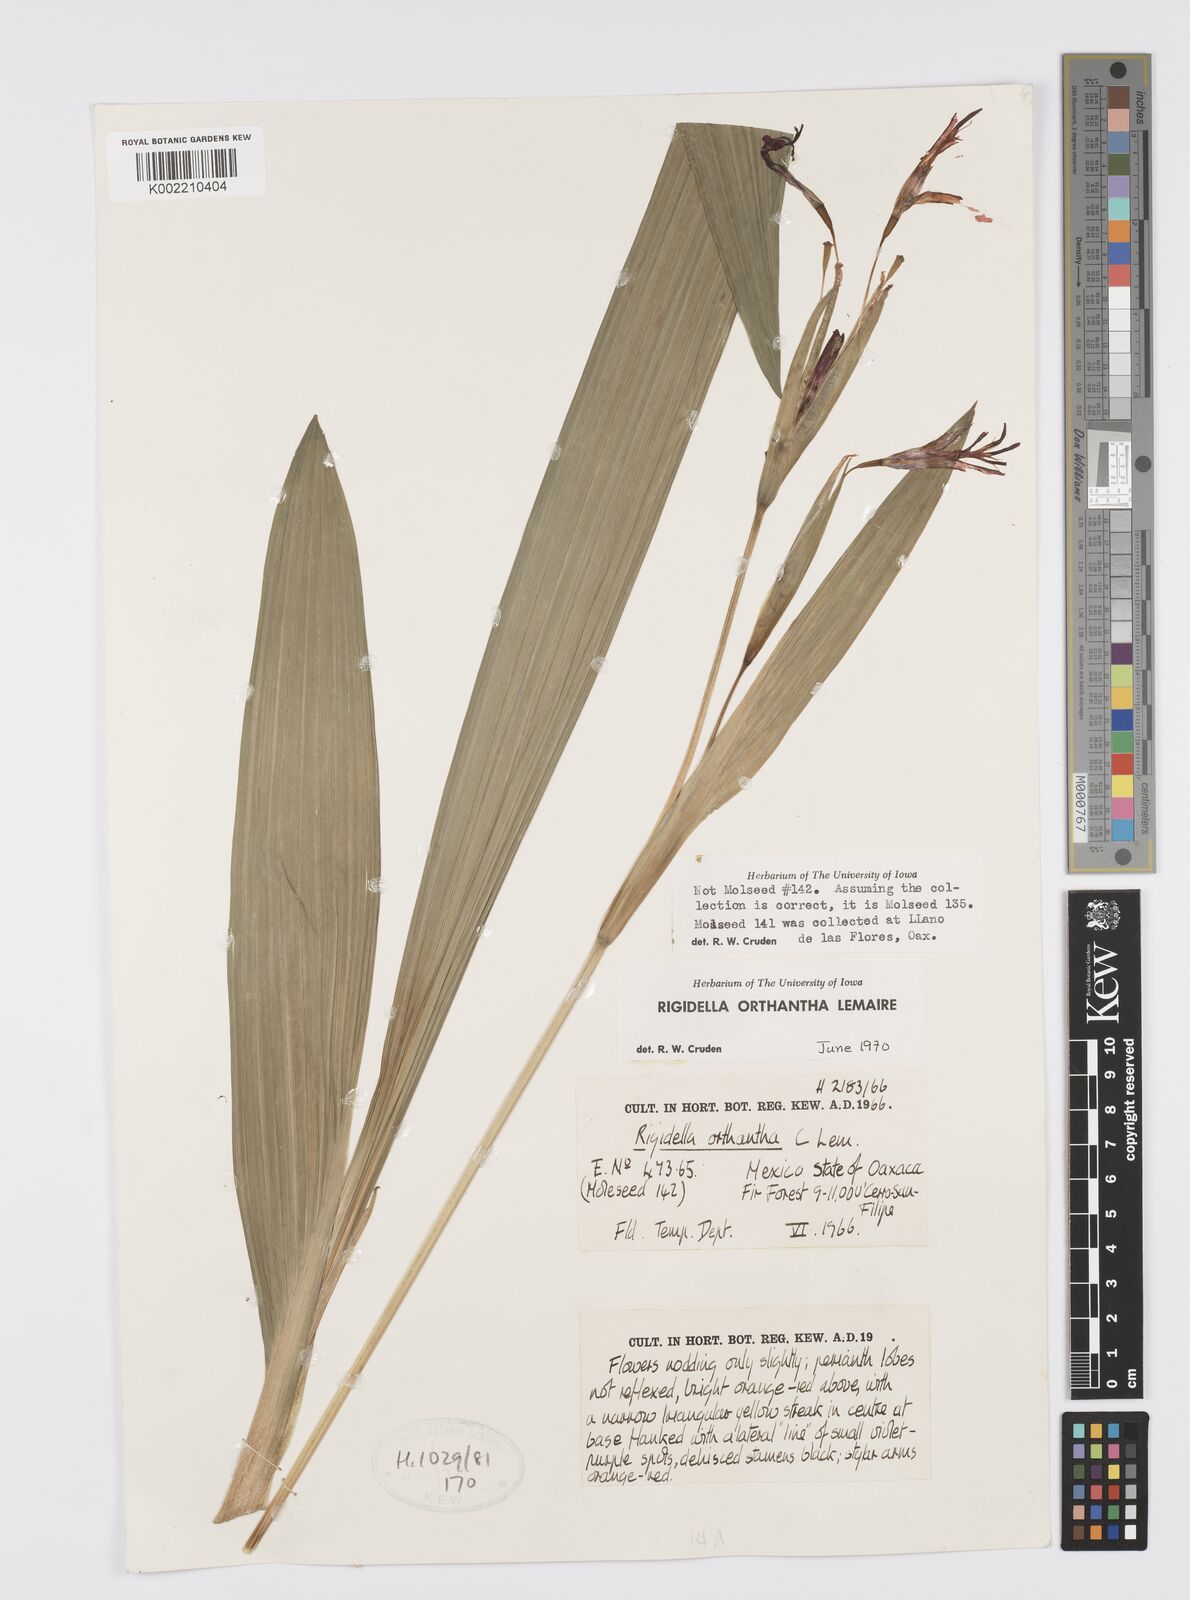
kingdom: Plantae
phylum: Tracheophyta
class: Liliopsida
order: Asparagales
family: Iridaceae
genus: Tigridia
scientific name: Tigridia orthantha
